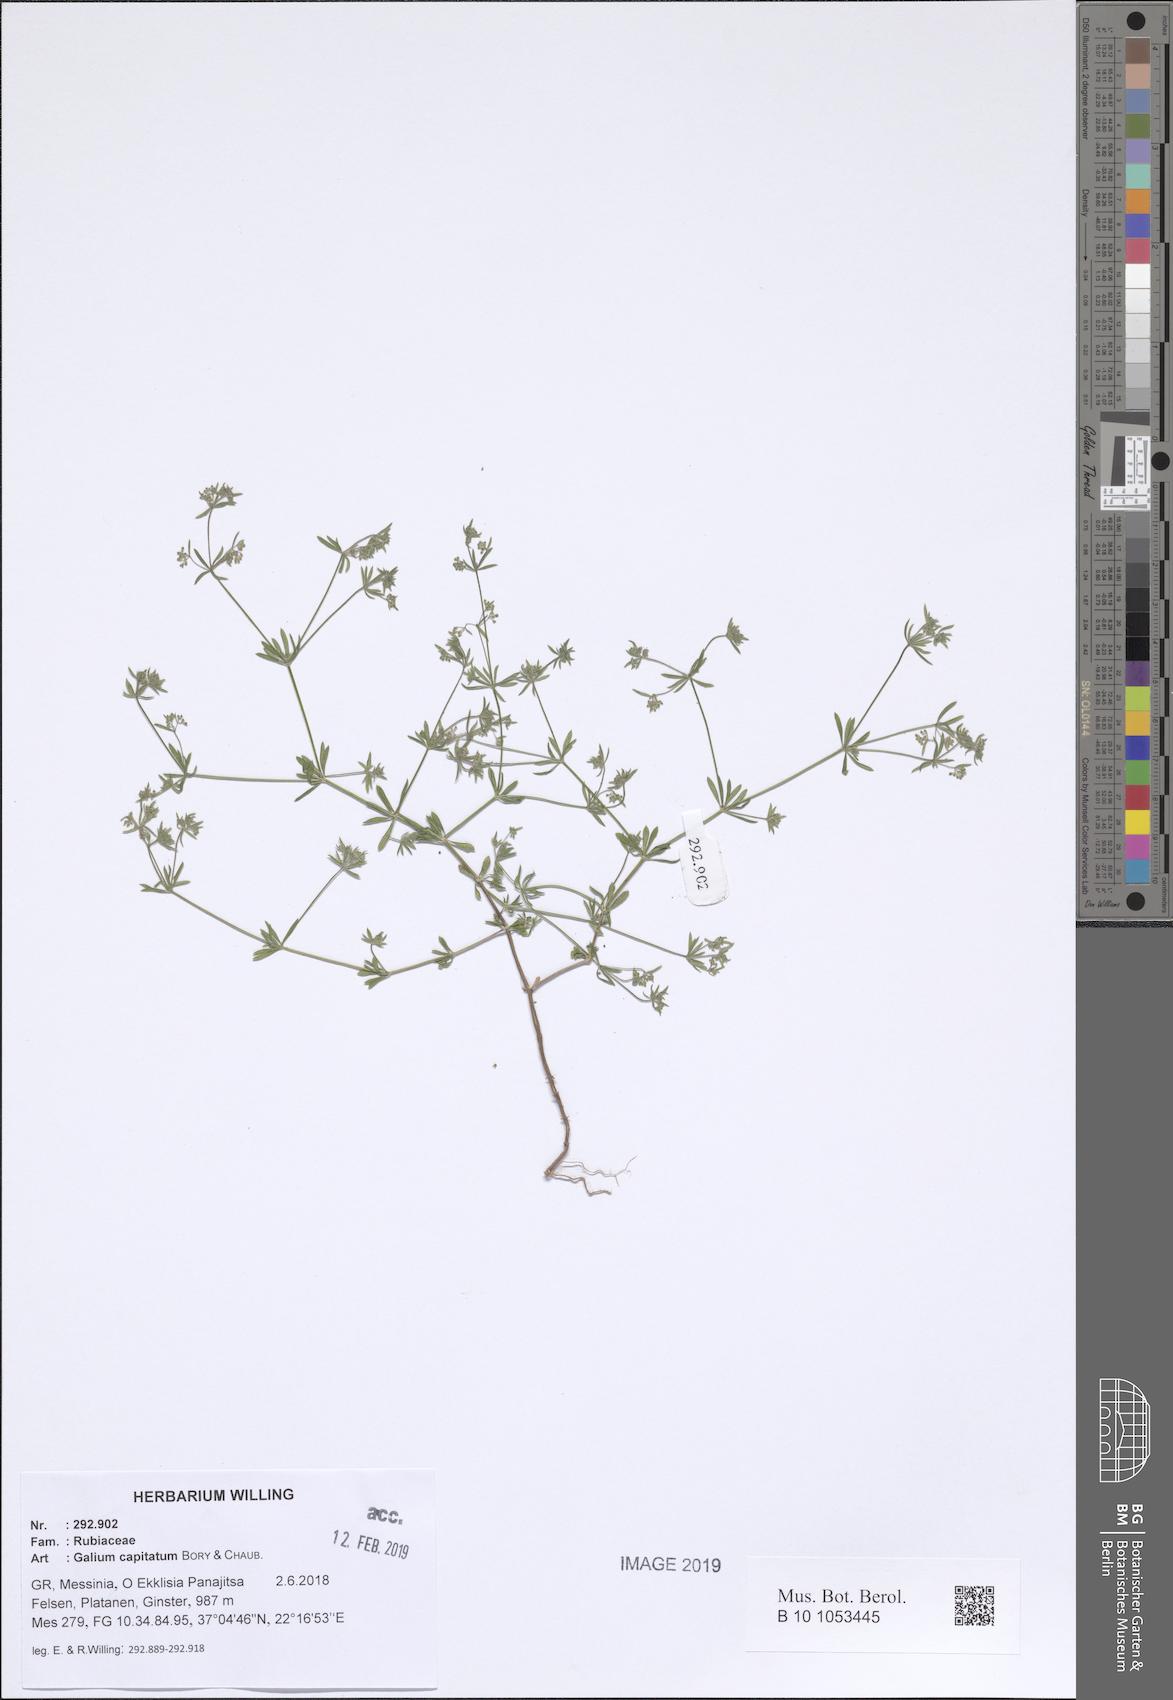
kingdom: Plantae
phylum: Tracheophyta
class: Magnoliopsida
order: Gentianales
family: Rubiaceae
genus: Galium
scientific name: Galium capitatum
